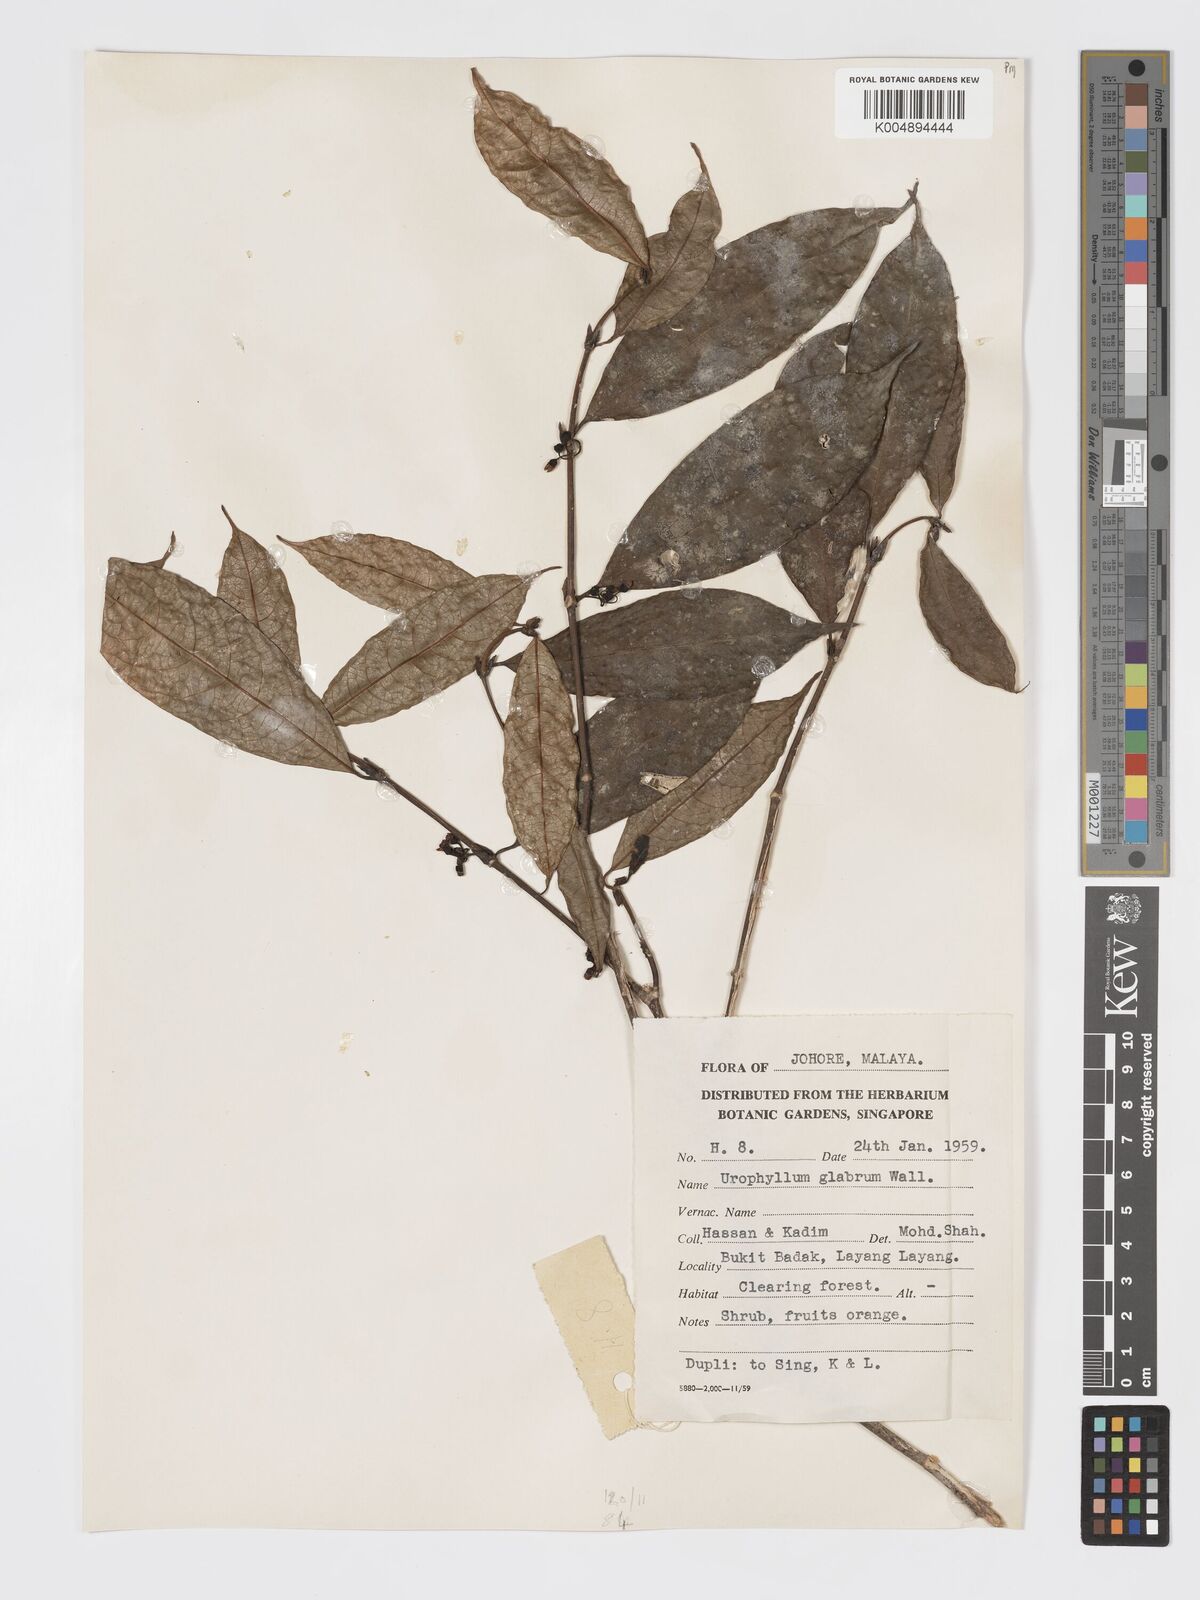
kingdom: Plantae
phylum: Tracheophyta
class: Magnoliopsida
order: Gentianales
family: Rubiaceae
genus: Urophyllum
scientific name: Urophyllum griffithianum
